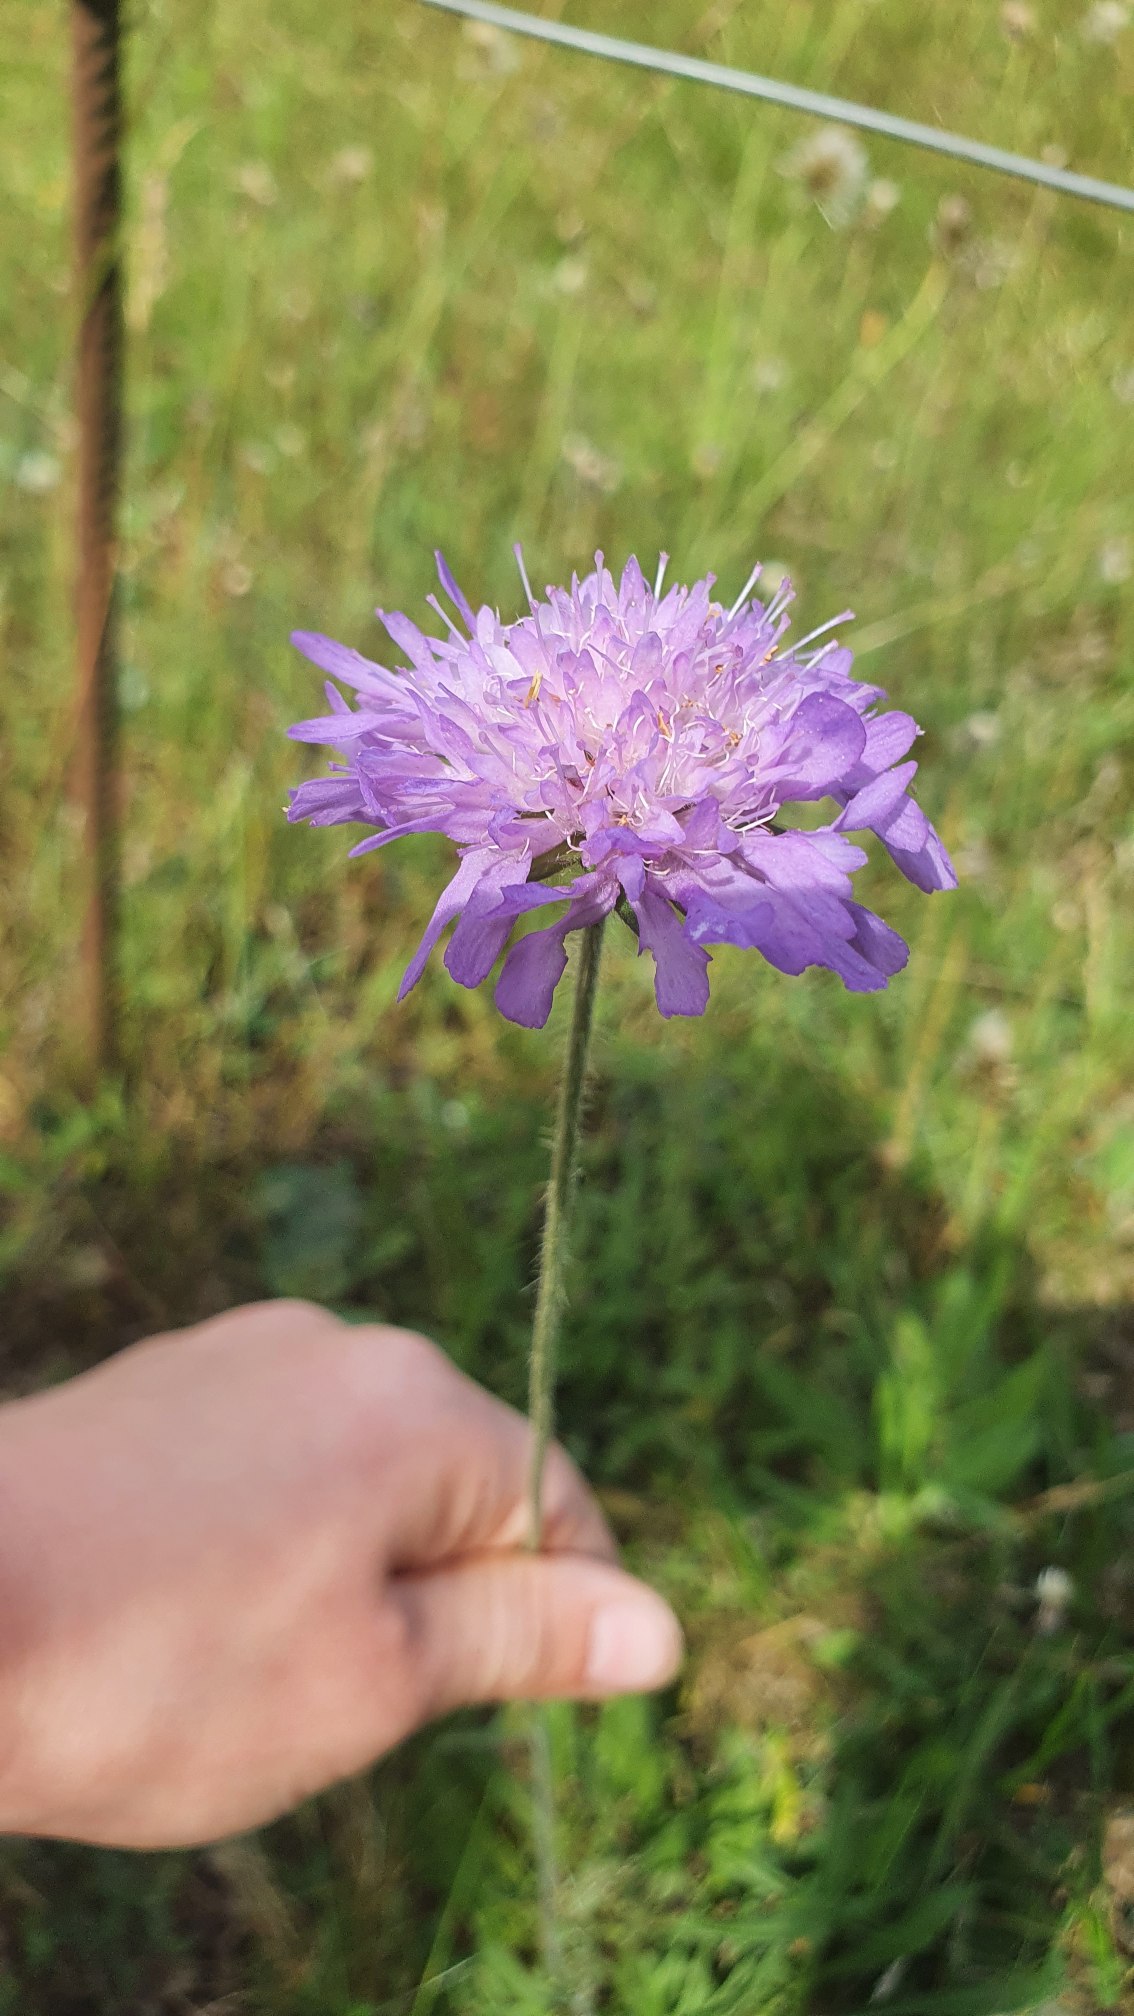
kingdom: Plantae
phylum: Tracheophyta
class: Magnoliopsida
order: Dipsacales
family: Caprifoliaceae
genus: Knautia
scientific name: Knautia arvensis
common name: Blåhat
